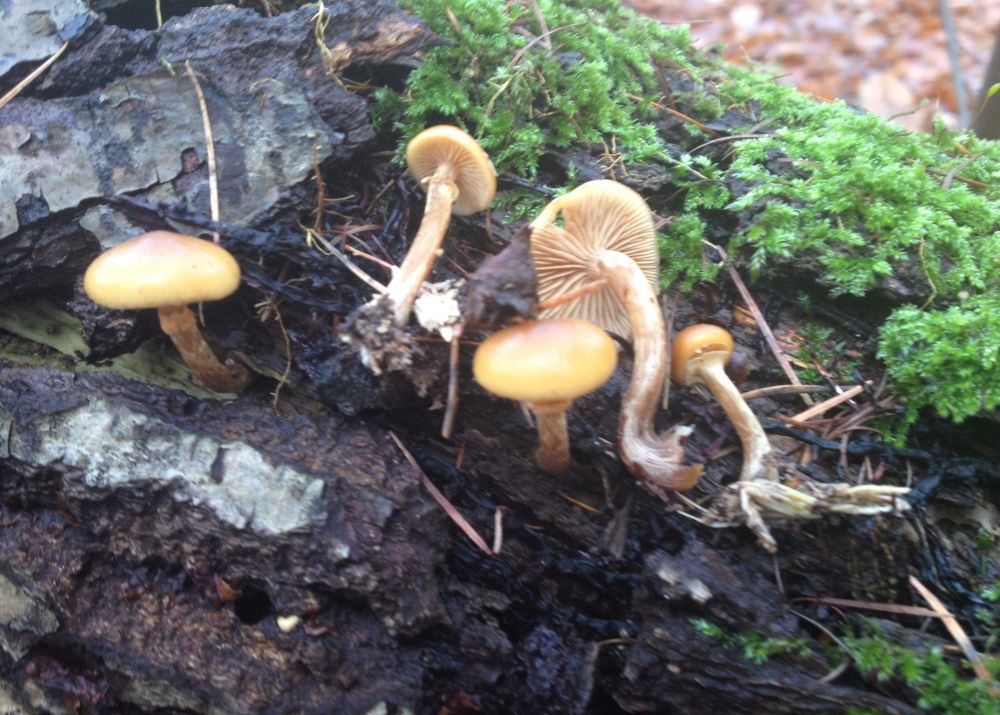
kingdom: Fungi
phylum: Basidiomycota
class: Agaricomycetes
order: Agaricales
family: Hymenogastraceae
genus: Galerina
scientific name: Galerina marginata
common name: randbæltet hjelmhat
